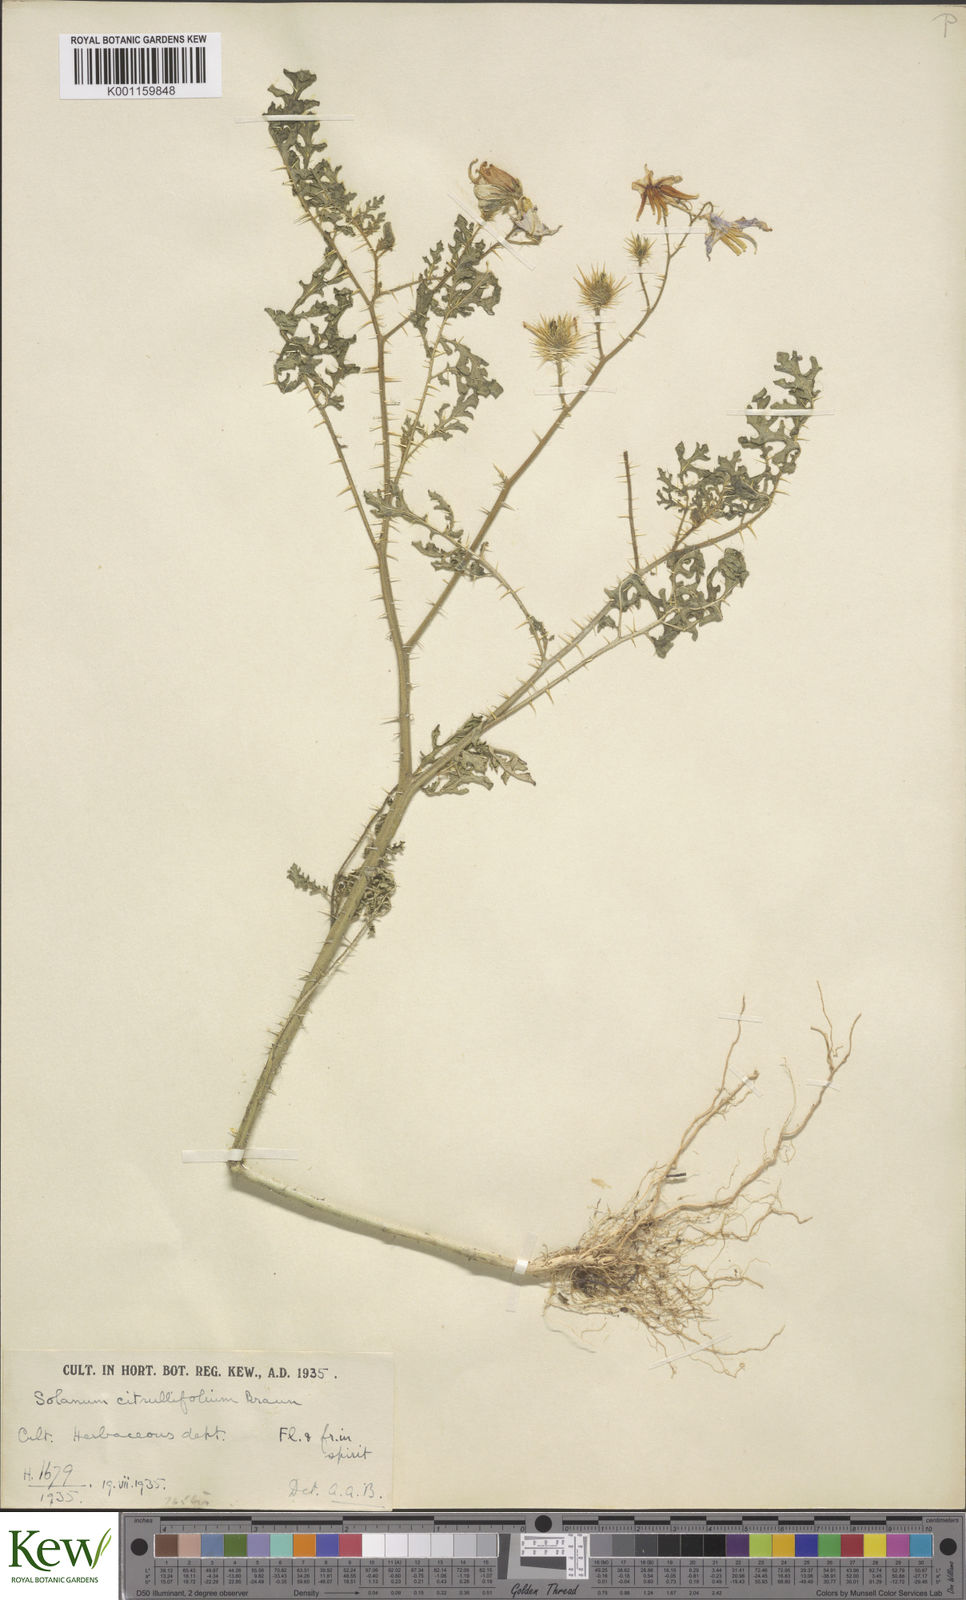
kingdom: Plantae
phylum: Tracheophyta
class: Magnoliopsida
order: Solanales
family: Solanaceae
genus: Solanum
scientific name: Solanum heterodoxum
